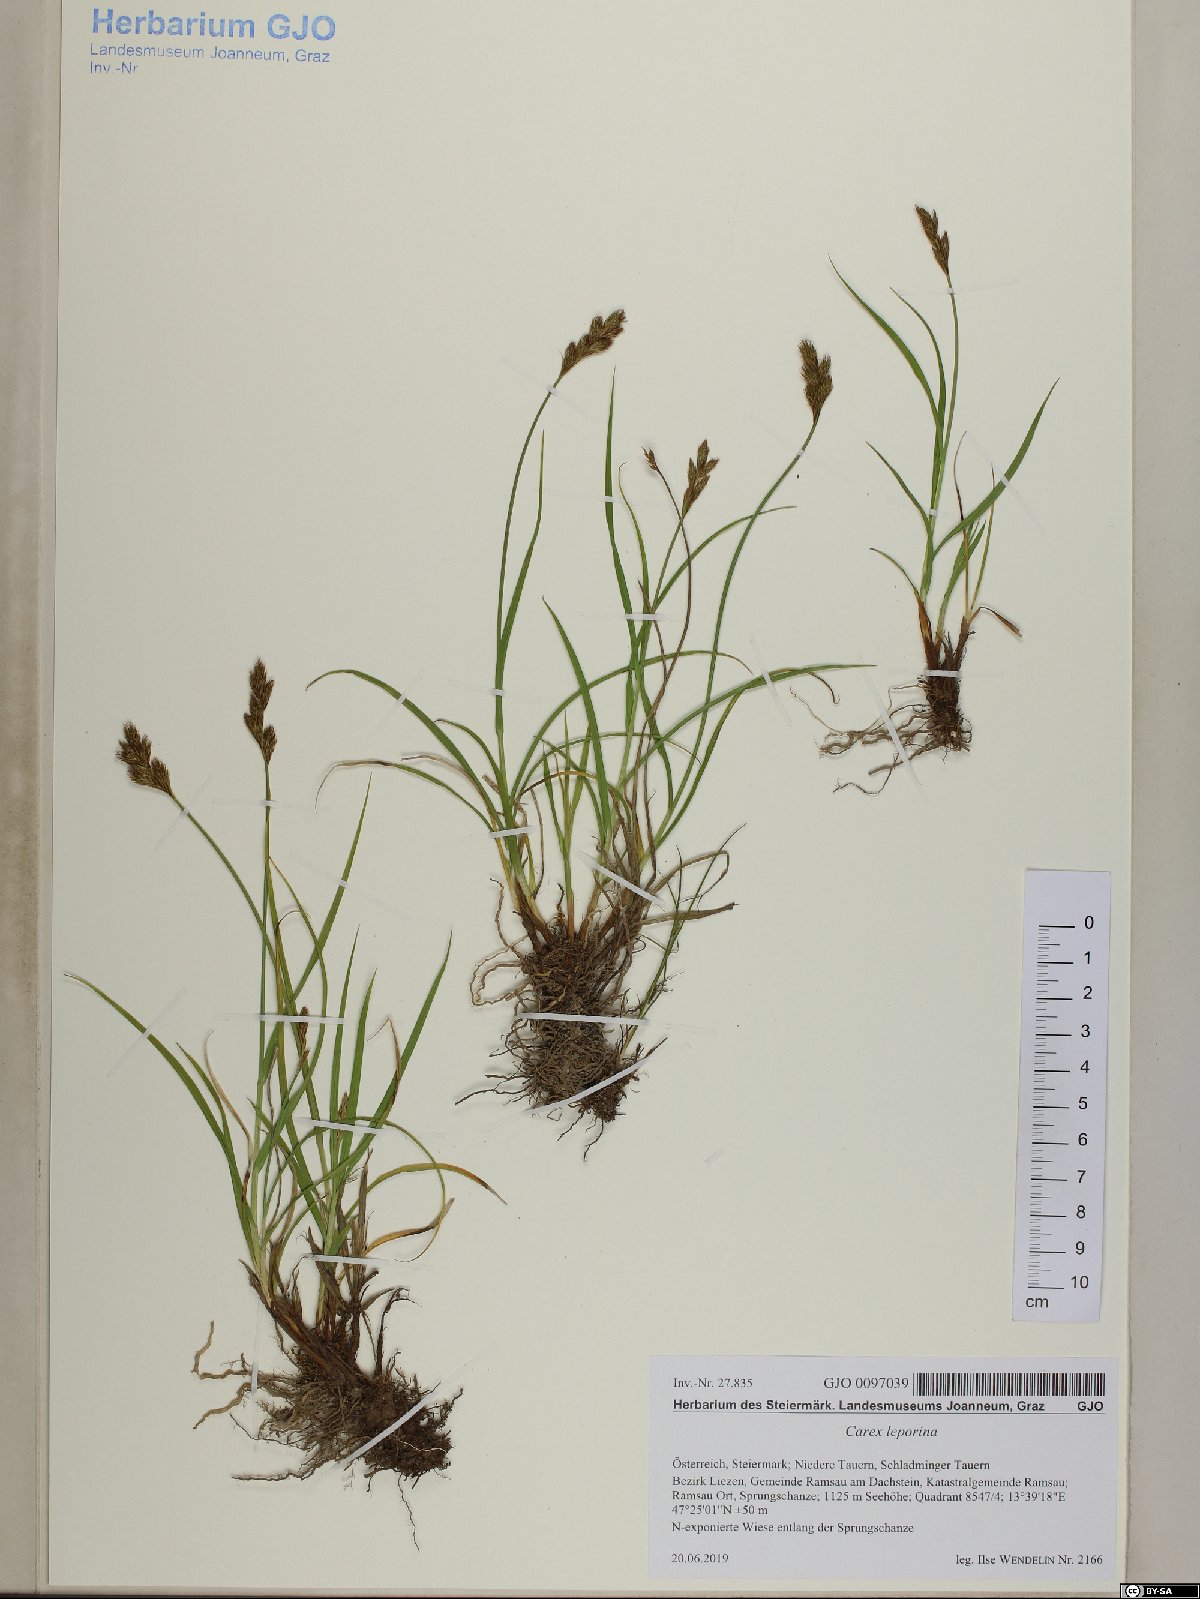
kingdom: Plantae
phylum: Tracheophyta
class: Liliopsida
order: Poales
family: Cyperaceae
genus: Carex
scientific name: Carex leporina
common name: Oval sedge
